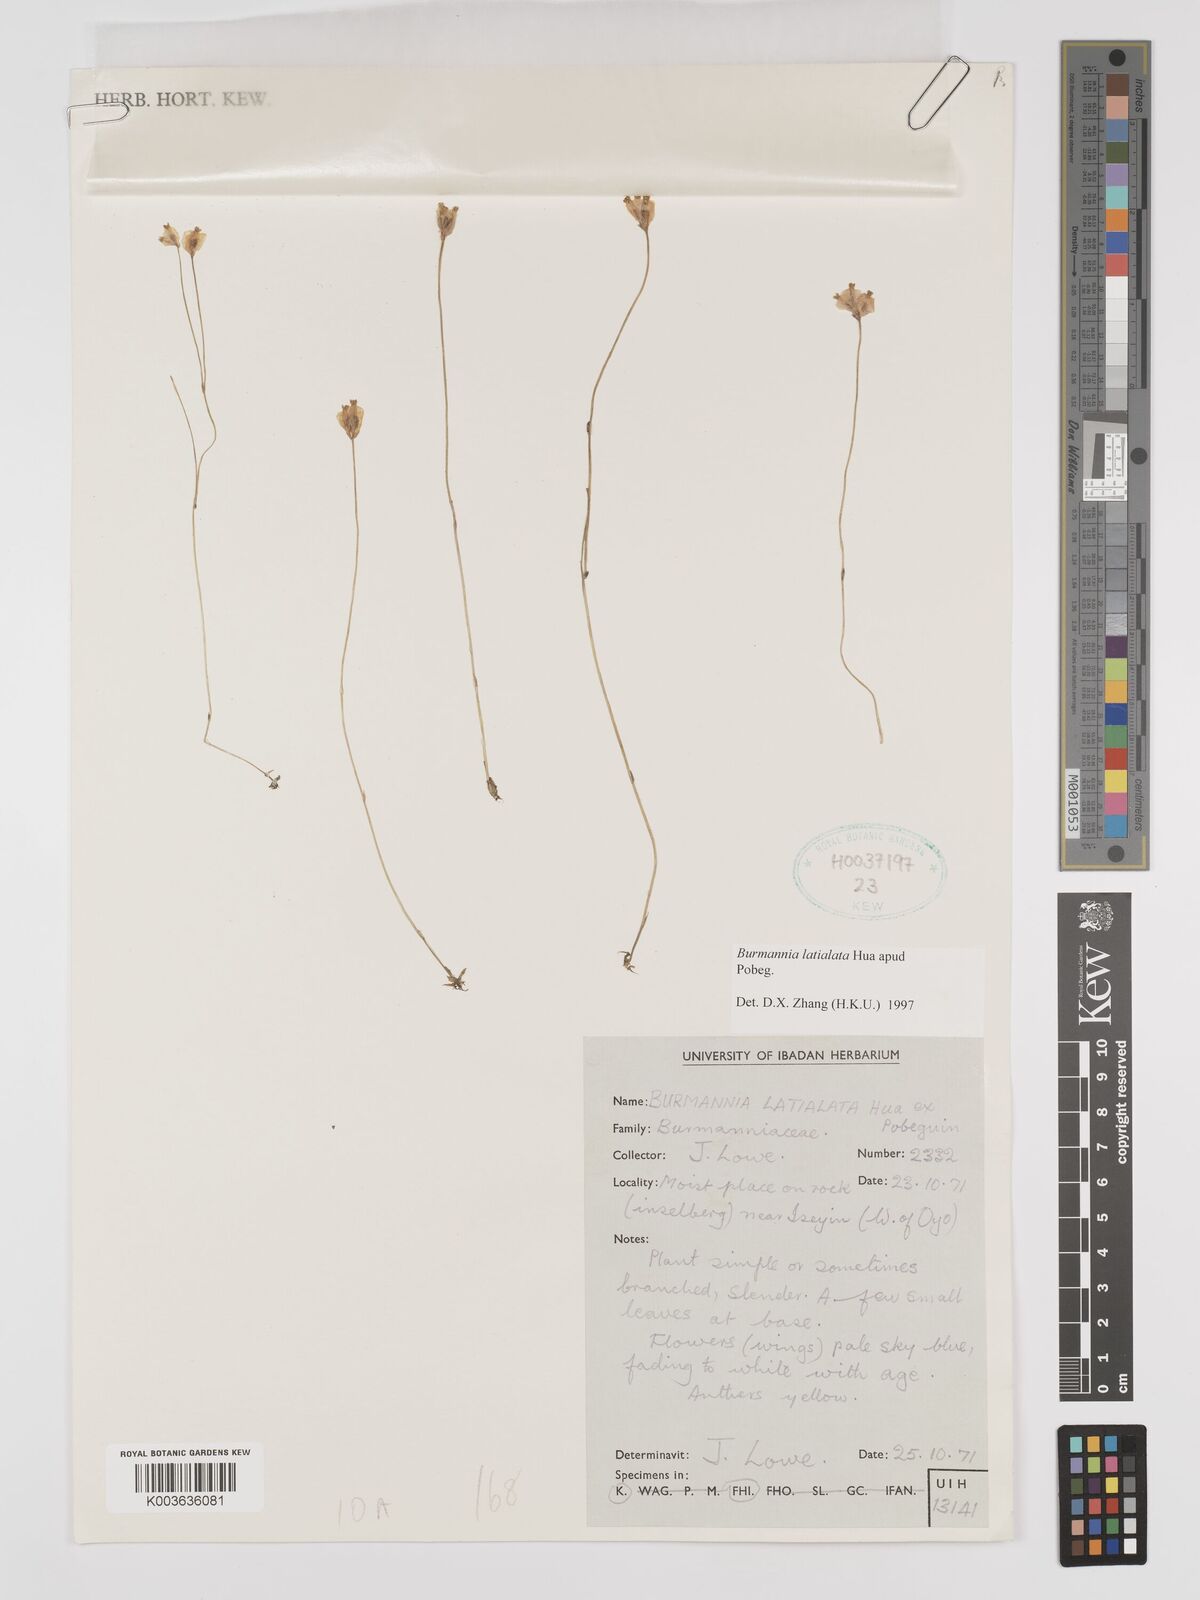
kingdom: Plantae
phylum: Tracheophyta
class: Liliopsida
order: Dioscoreales
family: Burmanniaceae
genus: Burmannia
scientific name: Burmannia madagascariensis
